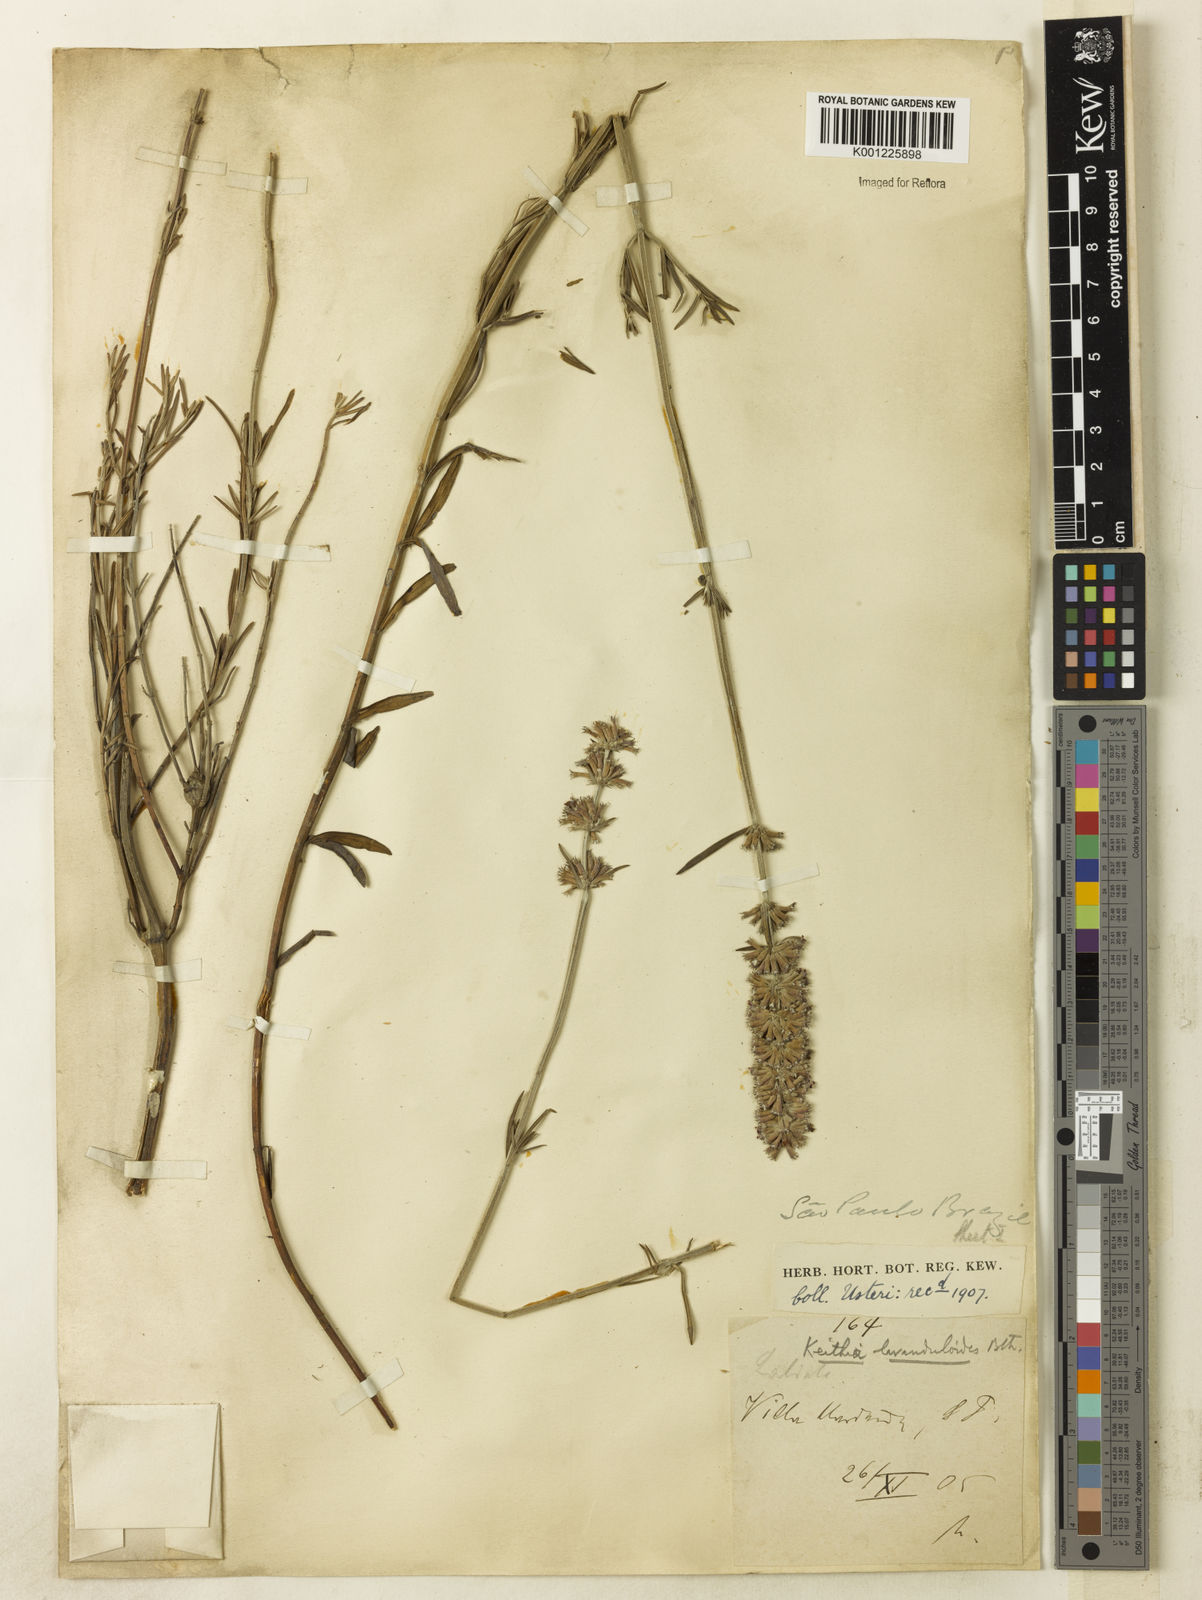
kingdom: Plantae
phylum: Tracheophyta
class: Magnoliopsida
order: Lamiales
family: Lamiaceae
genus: Rhabdocaulon
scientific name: Rhabdocaulon lavanduloides
